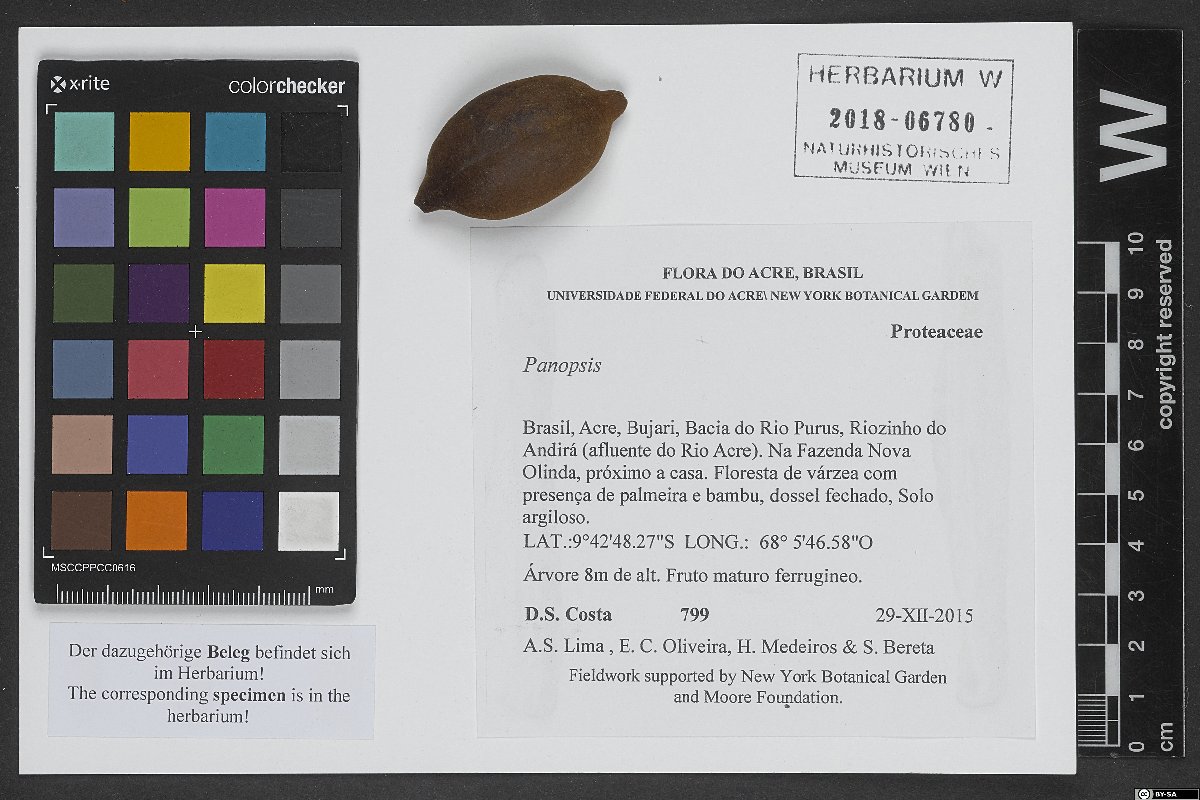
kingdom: Plantae
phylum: Tracheophyta
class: Magnoliopsida
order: Proteales
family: Proteaceae
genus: Panopsis
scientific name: Panopsis
